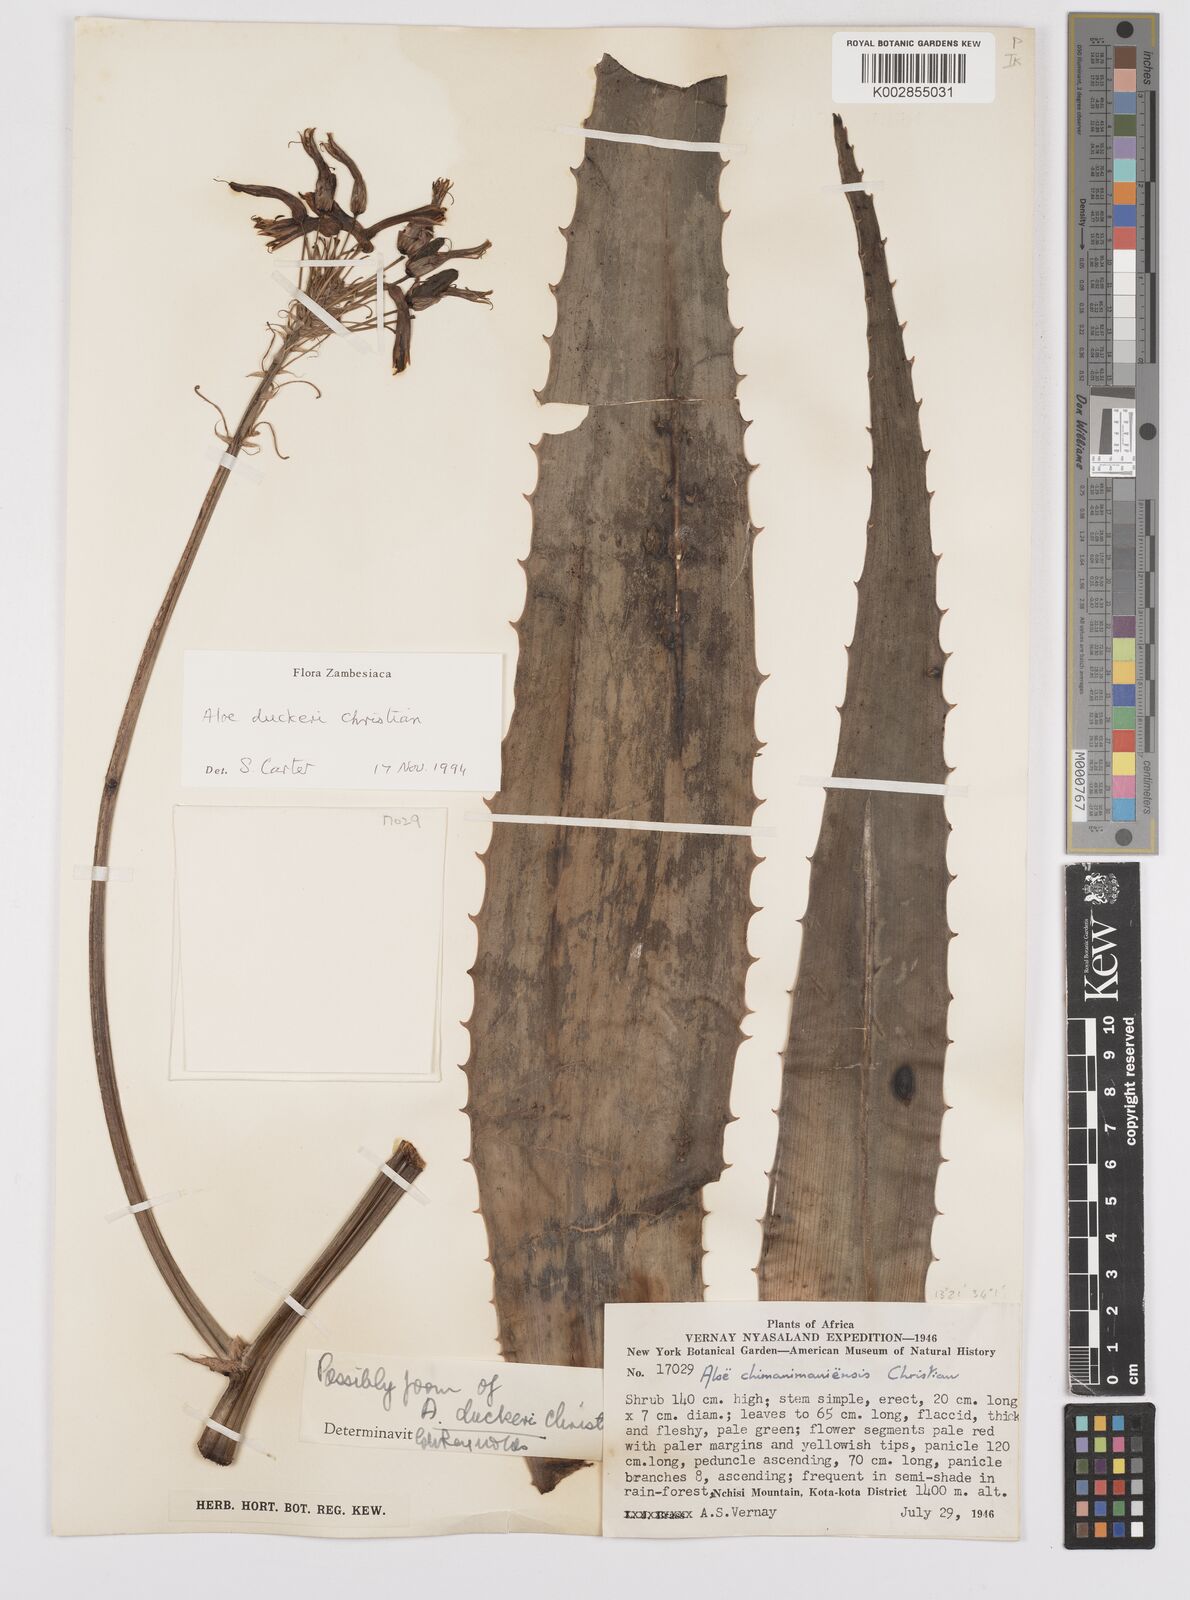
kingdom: Plantae
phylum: Tracheophyta
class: Liliopsida
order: Asparagales
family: Asphodelaceae
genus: Aloe
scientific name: Aloe swynnertonii
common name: Swynnerton's aloe
